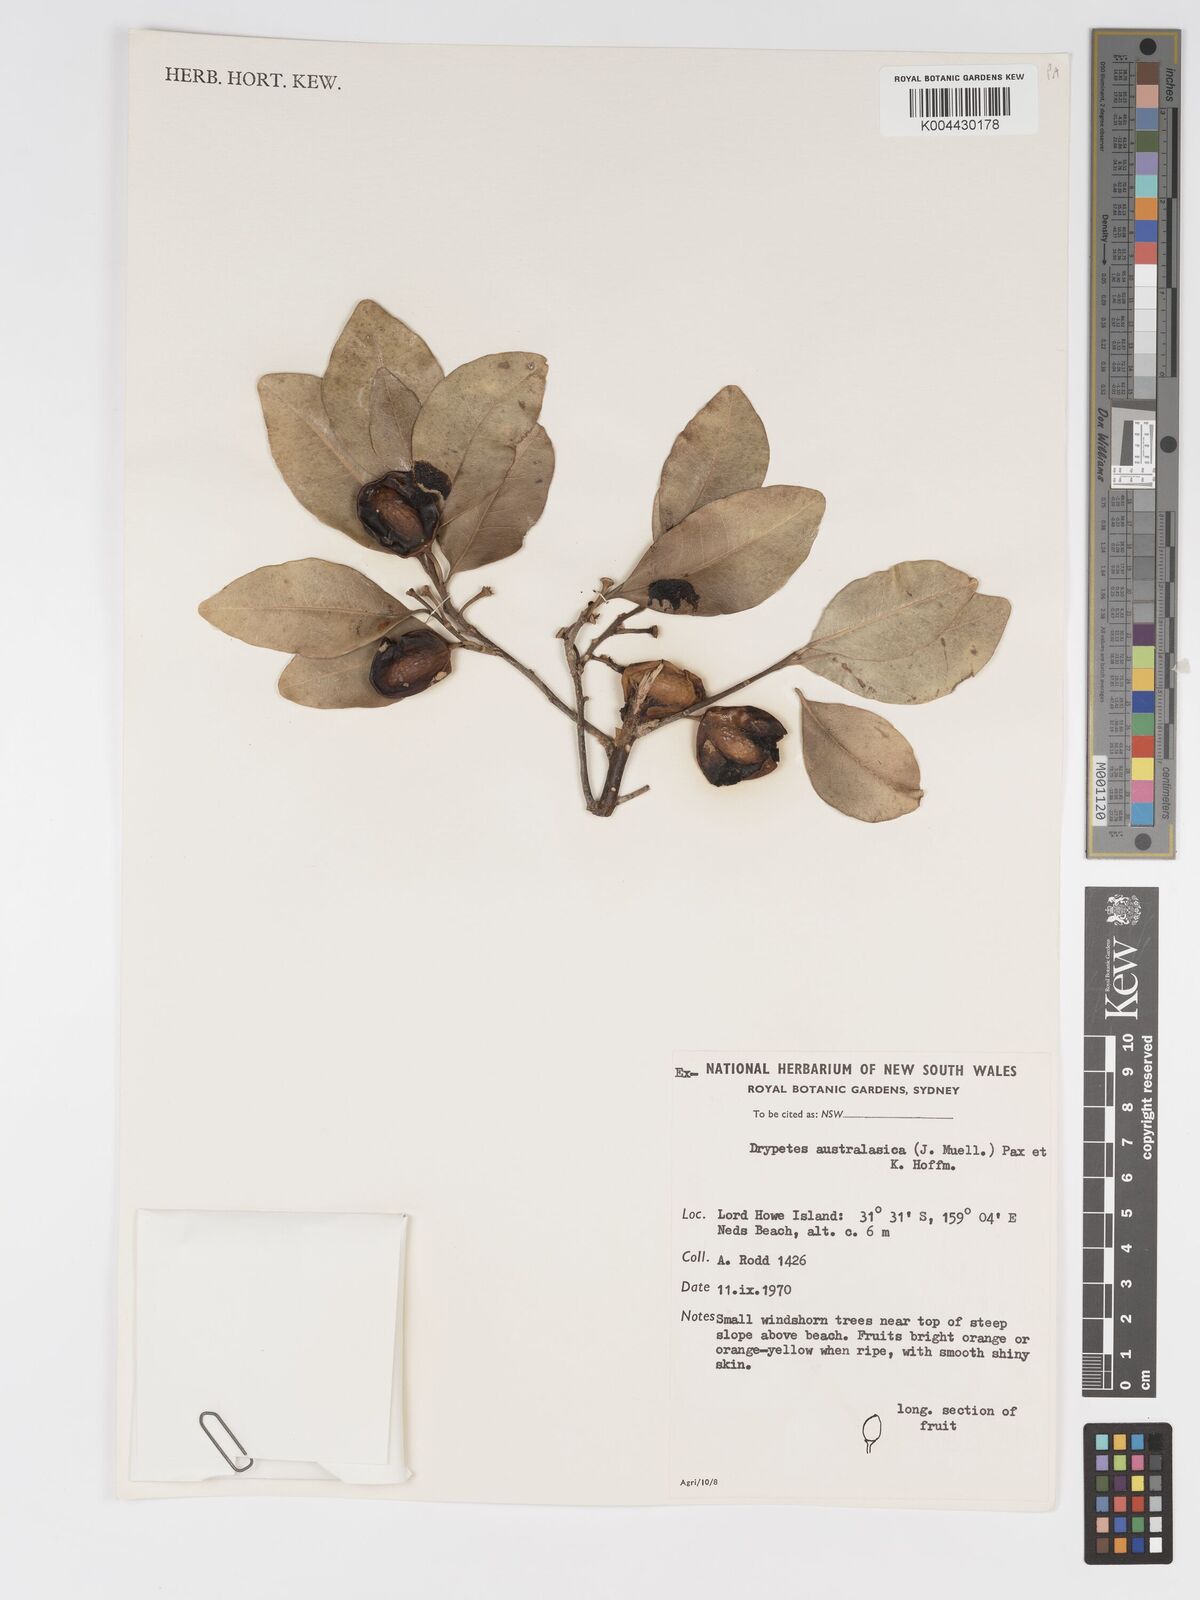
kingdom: Plantae
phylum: Tracheophyta
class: Magnoliopsida
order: Malpighiales
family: Putranjivaceae
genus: Drypetes
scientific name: Drypetes deplanchei
